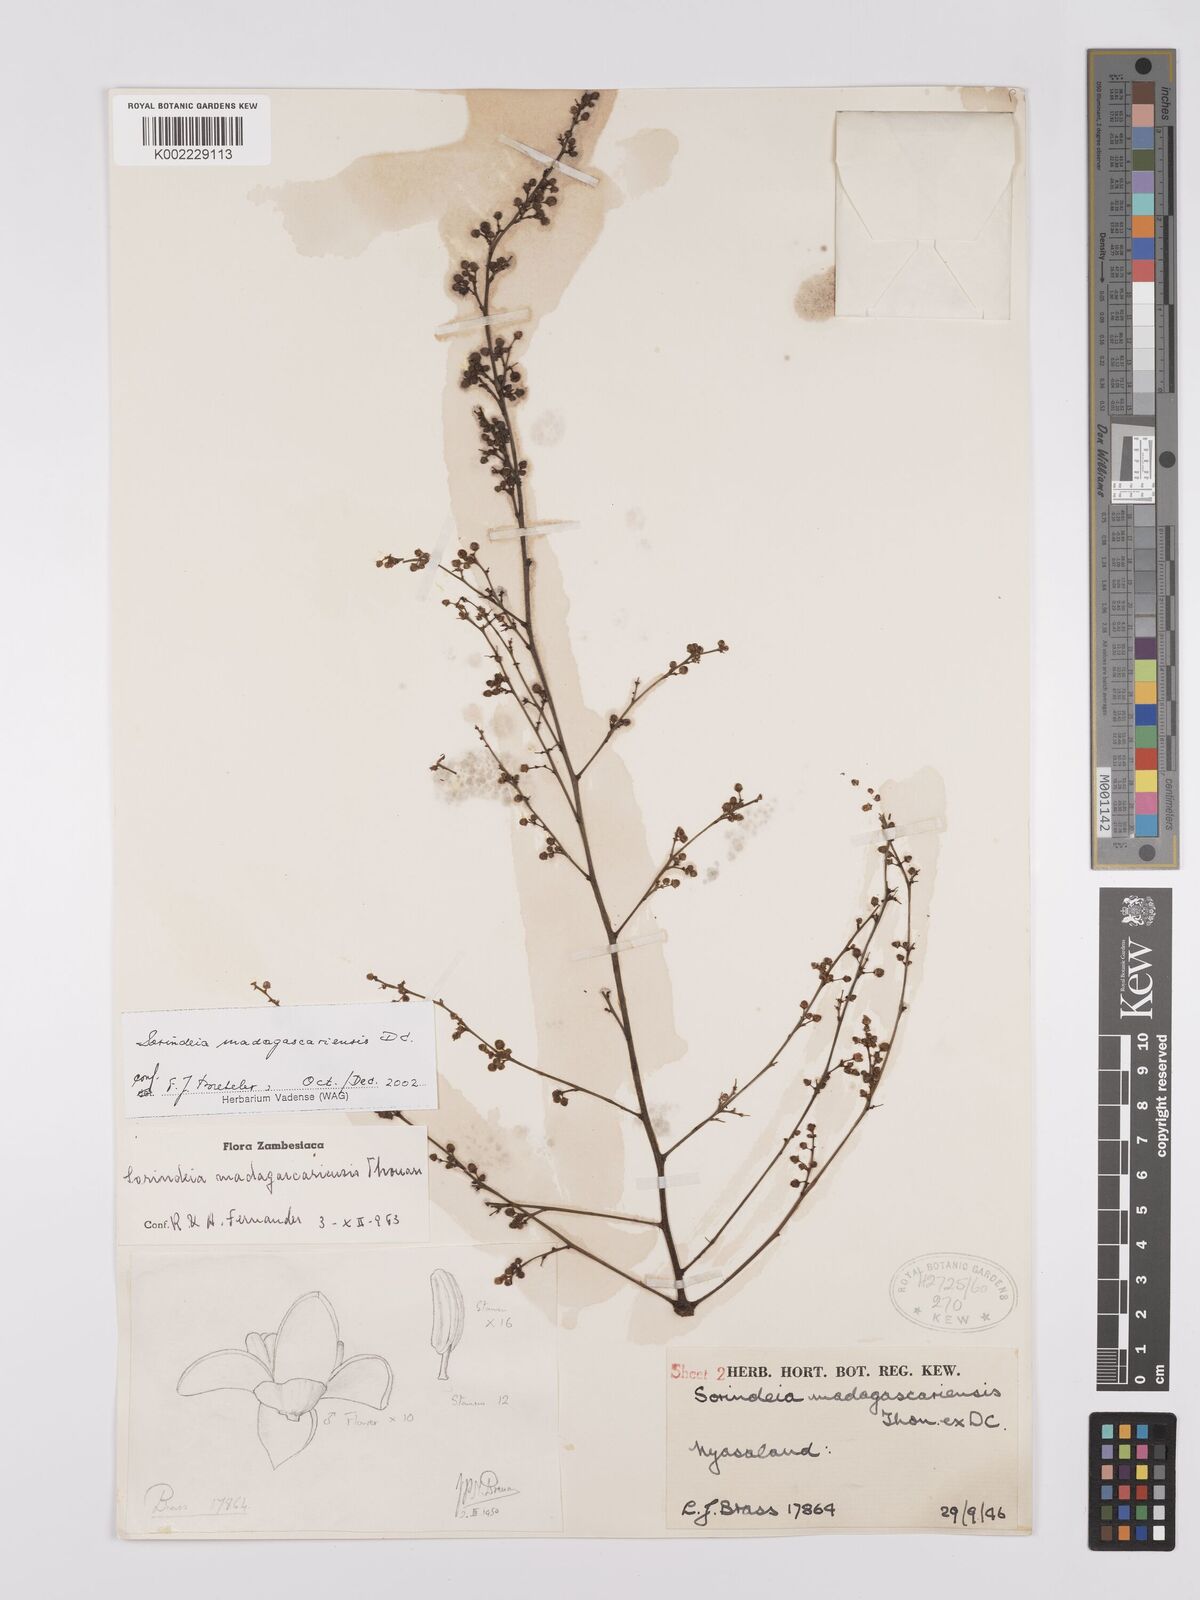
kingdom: Plantae
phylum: Tracheophyta
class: Magnoliopsida
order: Sapindales
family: Anacardiaceae
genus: Sorindeia
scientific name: Sorindeia madagascariensis
